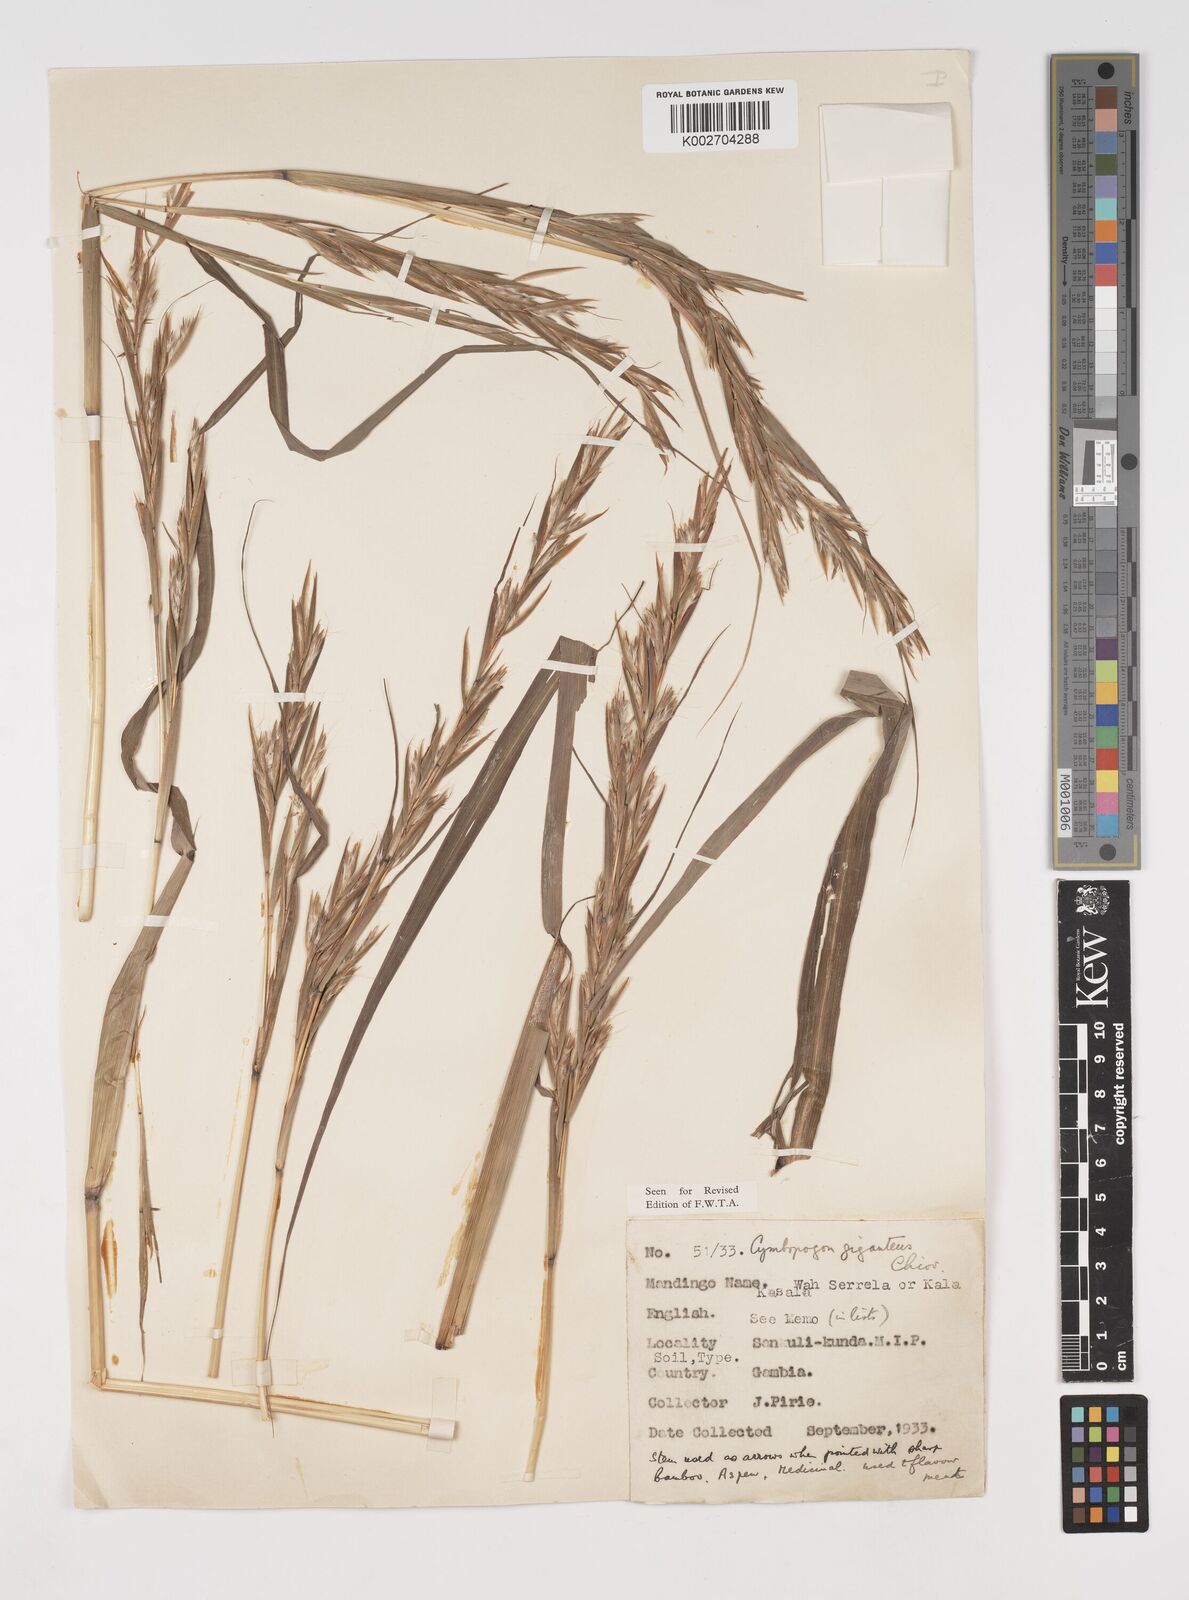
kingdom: Plantae
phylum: Tracheophyta
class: Liliopsida
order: Poales
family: Poaceae
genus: Cymbopogon
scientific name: Cymbopogon giganteus
